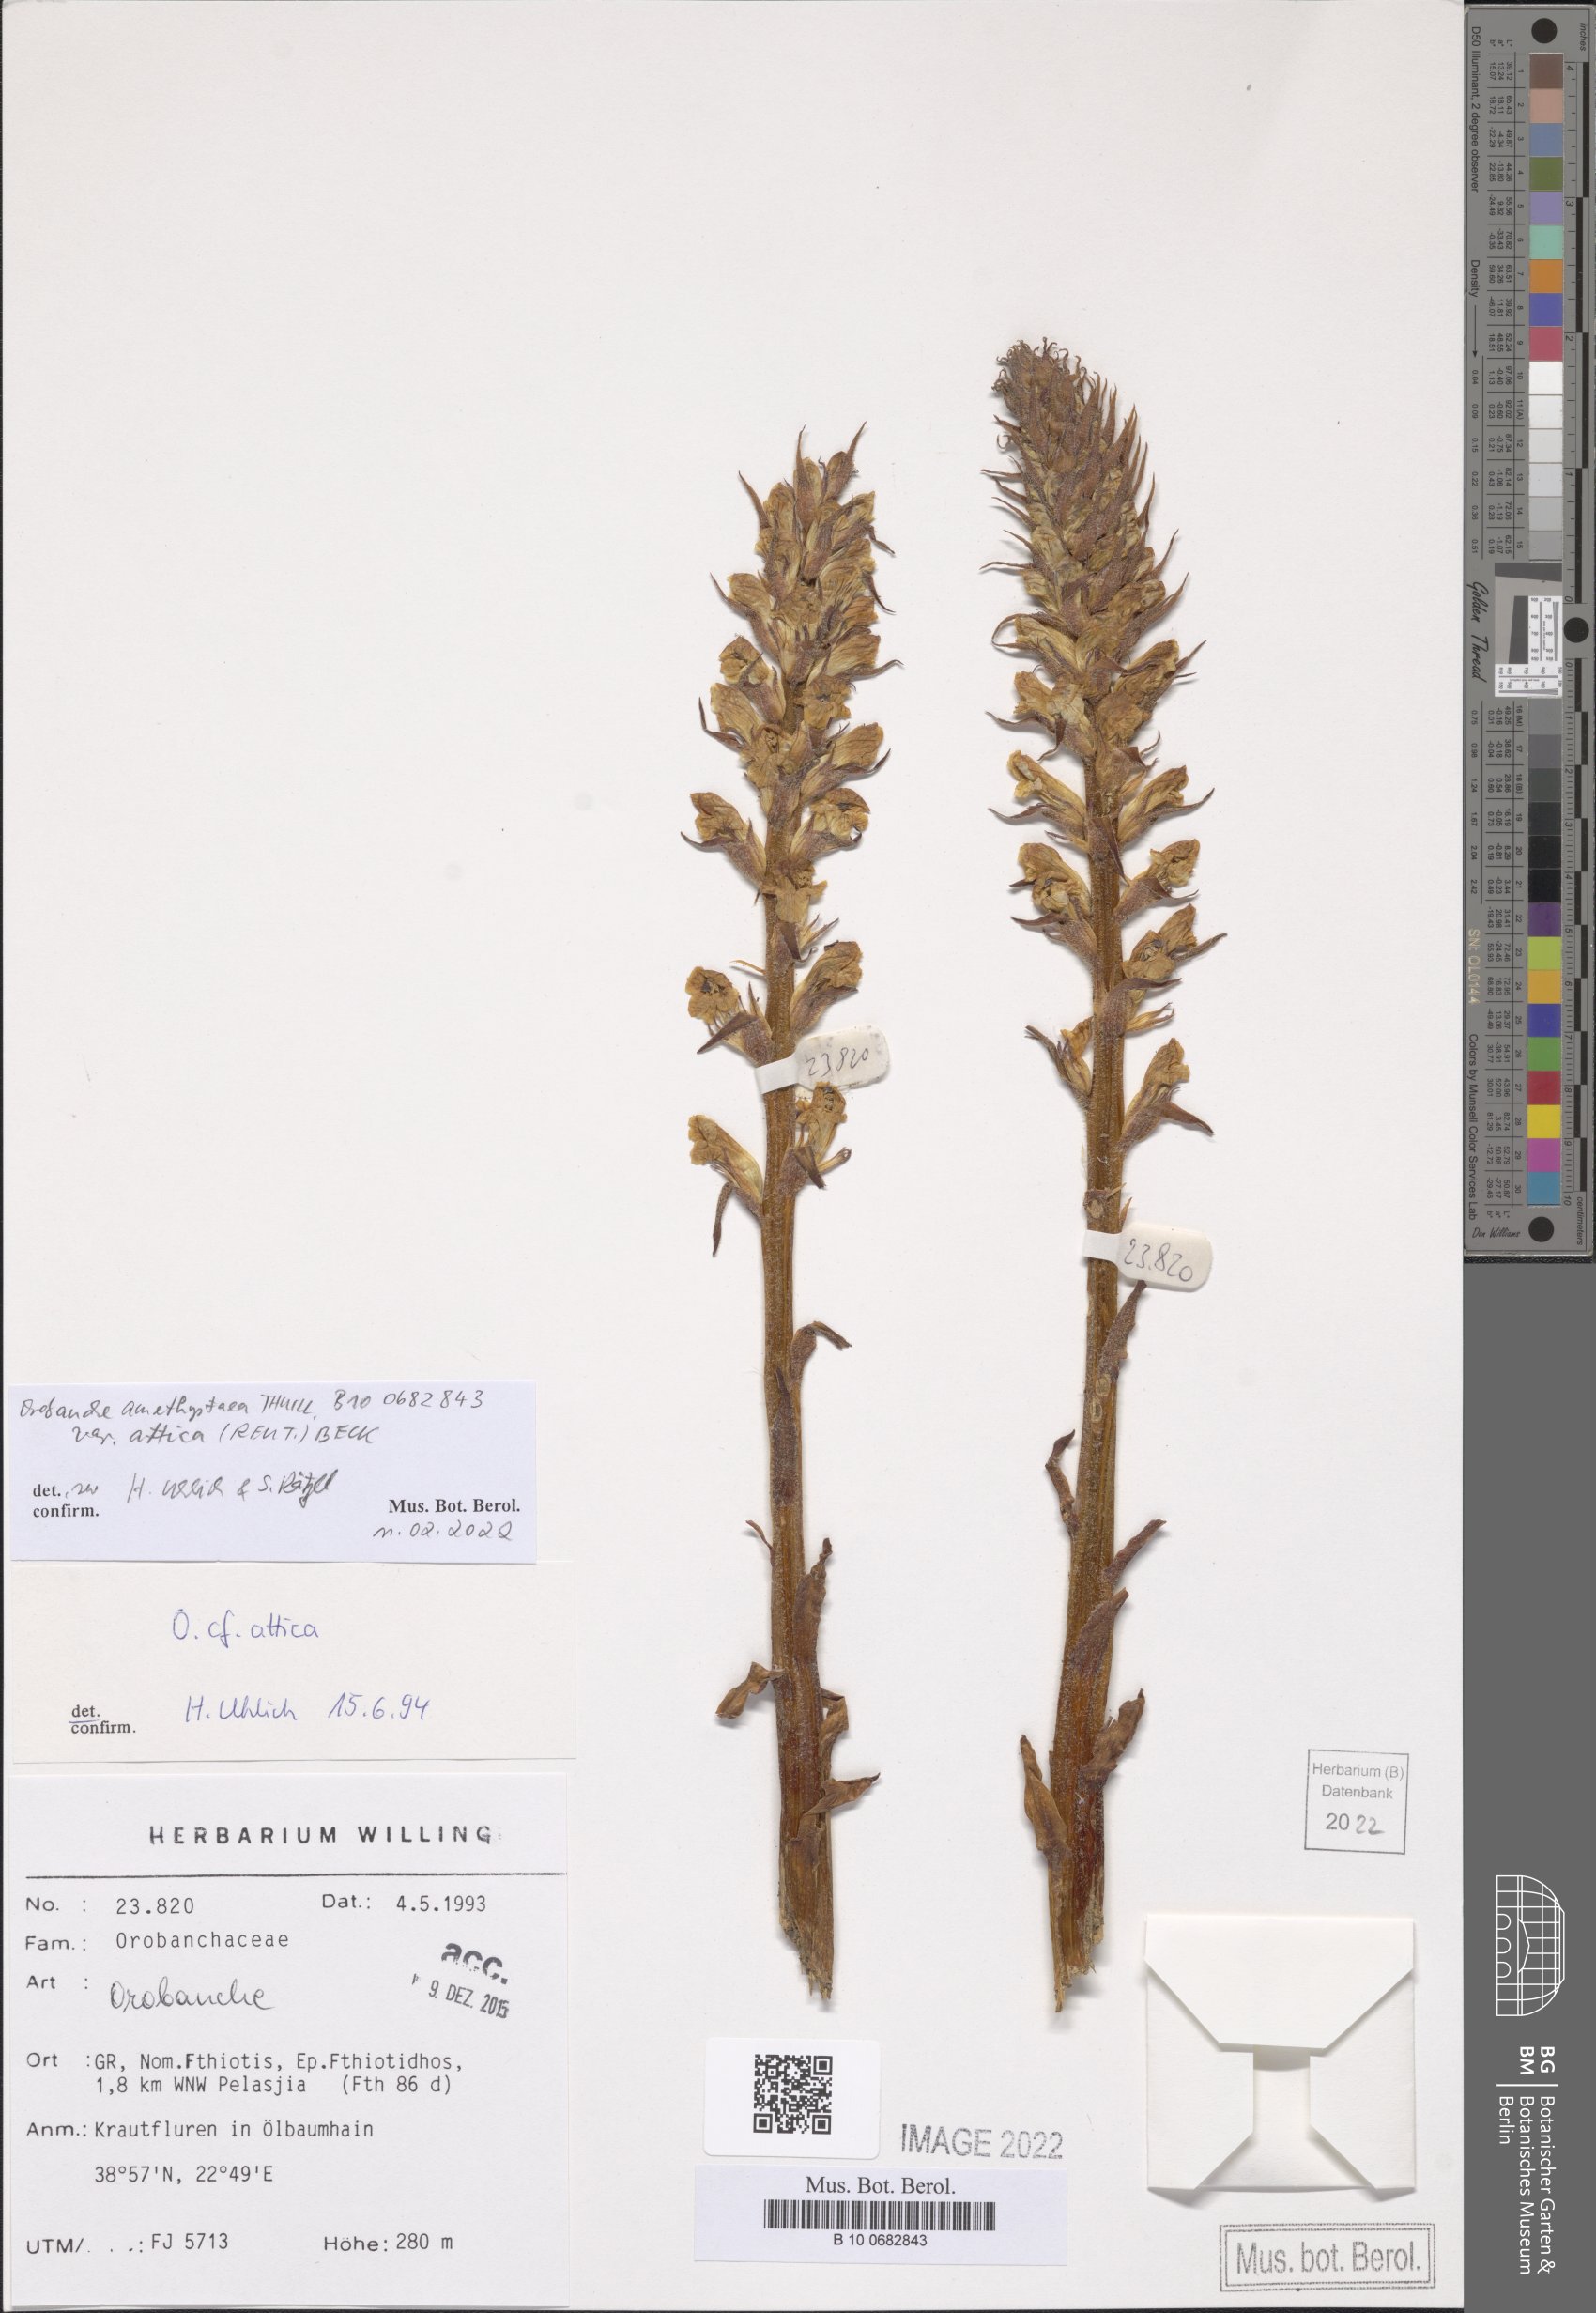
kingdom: Plantae
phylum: Tracheophyta
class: Magnoliopsida
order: Lamiales
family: Orobanchaceae
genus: Orobanche
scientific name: Orobanche amethystea
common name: Amethyst broomrape
